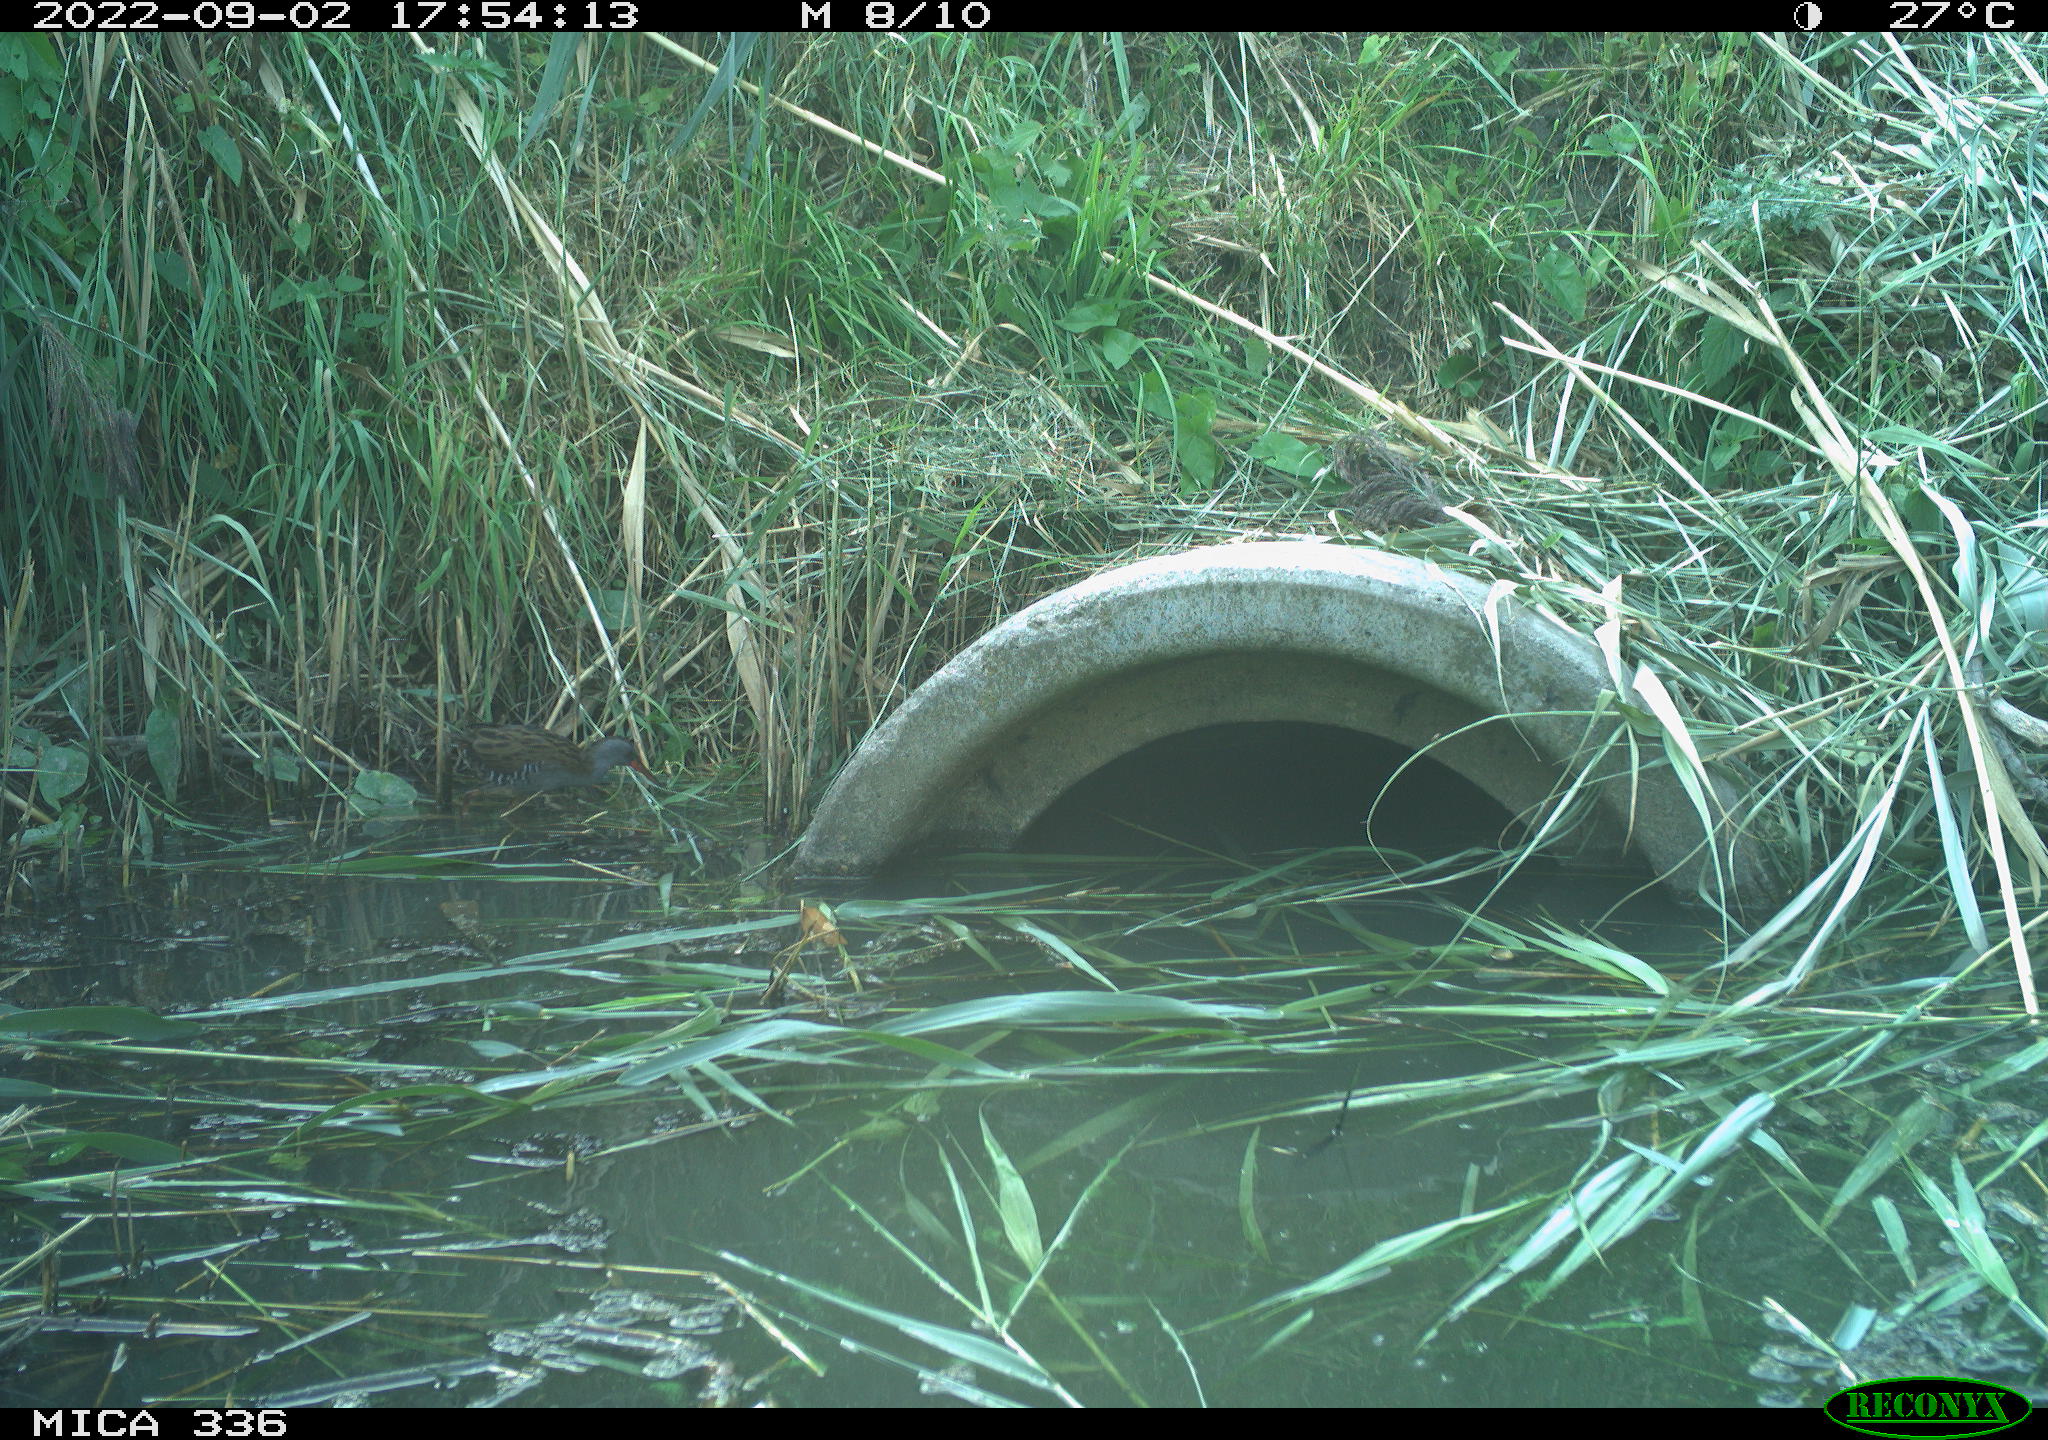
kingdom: Animalia
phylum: Chordata
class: Aves
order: Gruiformes
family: Rallidae
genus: Rallus
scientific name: Rallus aquaticus
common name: Water rail
